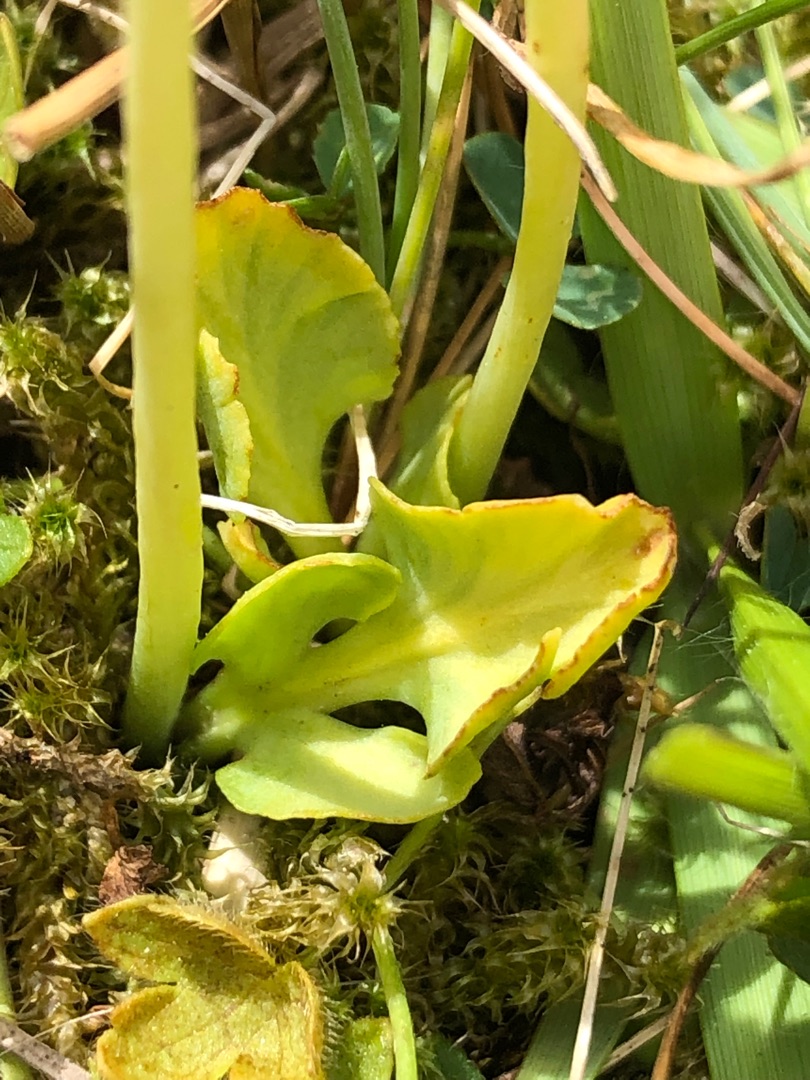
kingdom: Plantae
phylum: Tracheophyta
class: Polypodiopsida
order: Ophioglossales
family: Ophioglossaceae
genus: Botrychium
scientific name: Botrychium simplex
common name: Enkelt månerude
